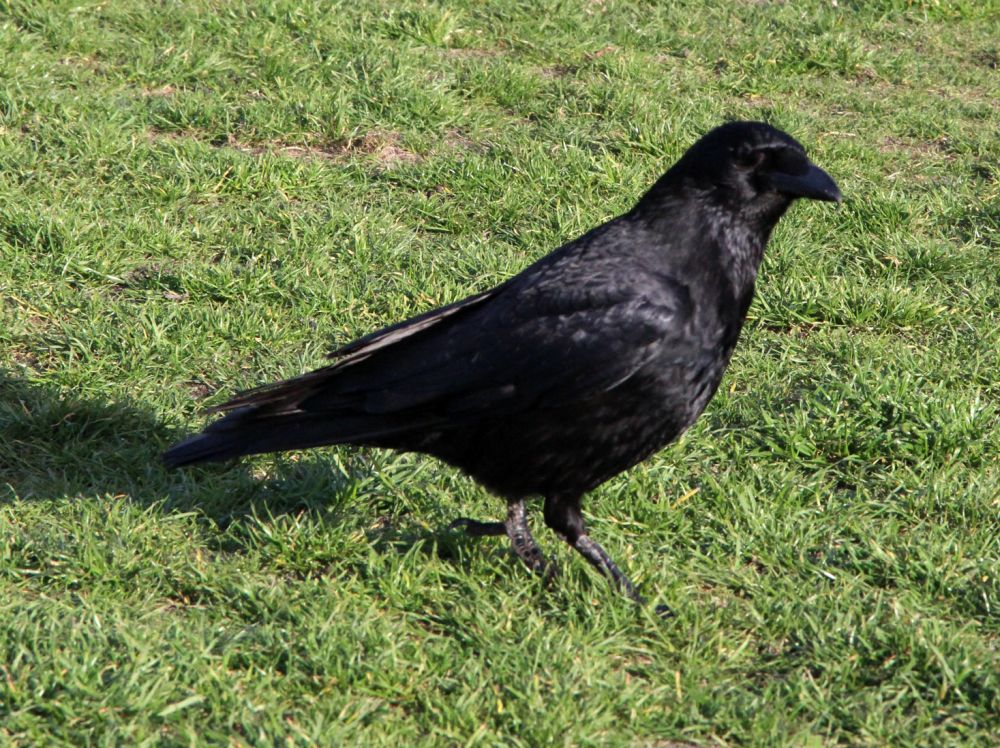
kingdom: Animalia
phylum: Chordata
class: Aves
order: Passeriformes
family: Corvidae
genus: Corvus
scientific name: Corvus corone
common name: Carrion crow
